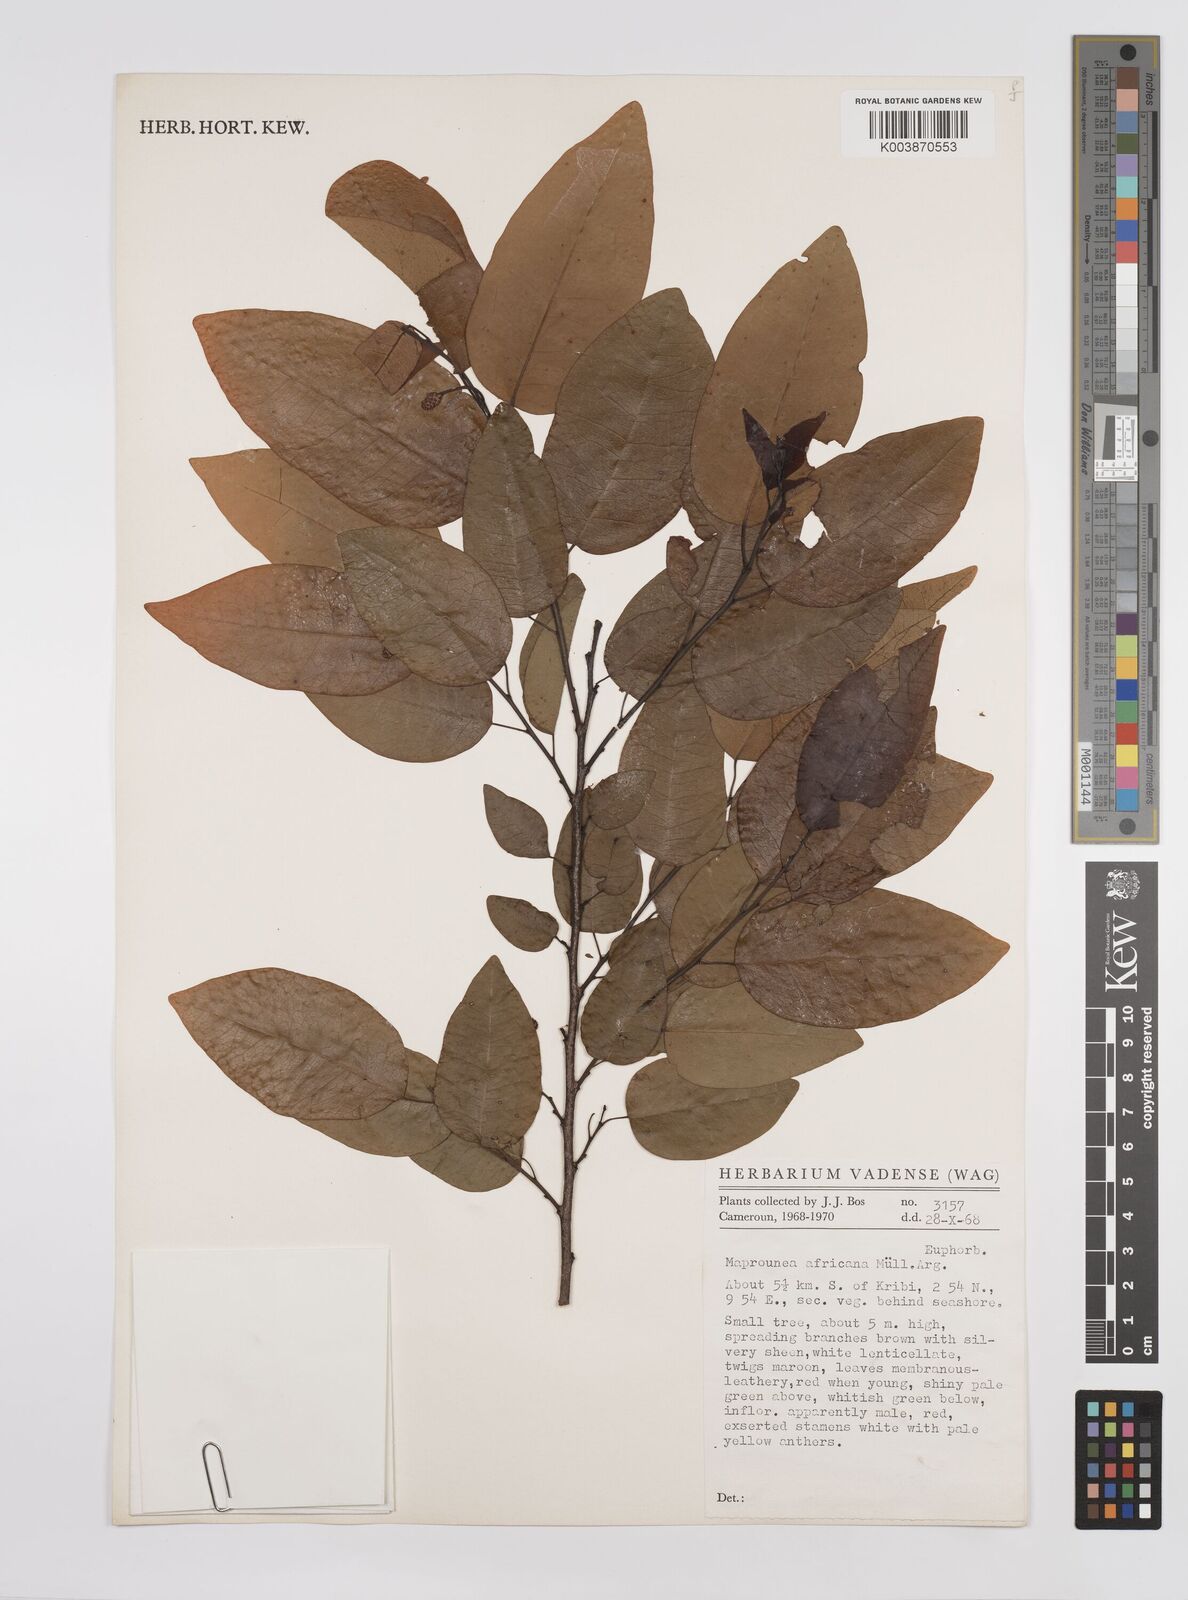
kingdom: Plantae
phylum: Tracheophyta
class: Magnoliopsida
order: Malpighiales
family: Euphorbiaceae
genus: Maprounea
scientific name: Maprounea africana
